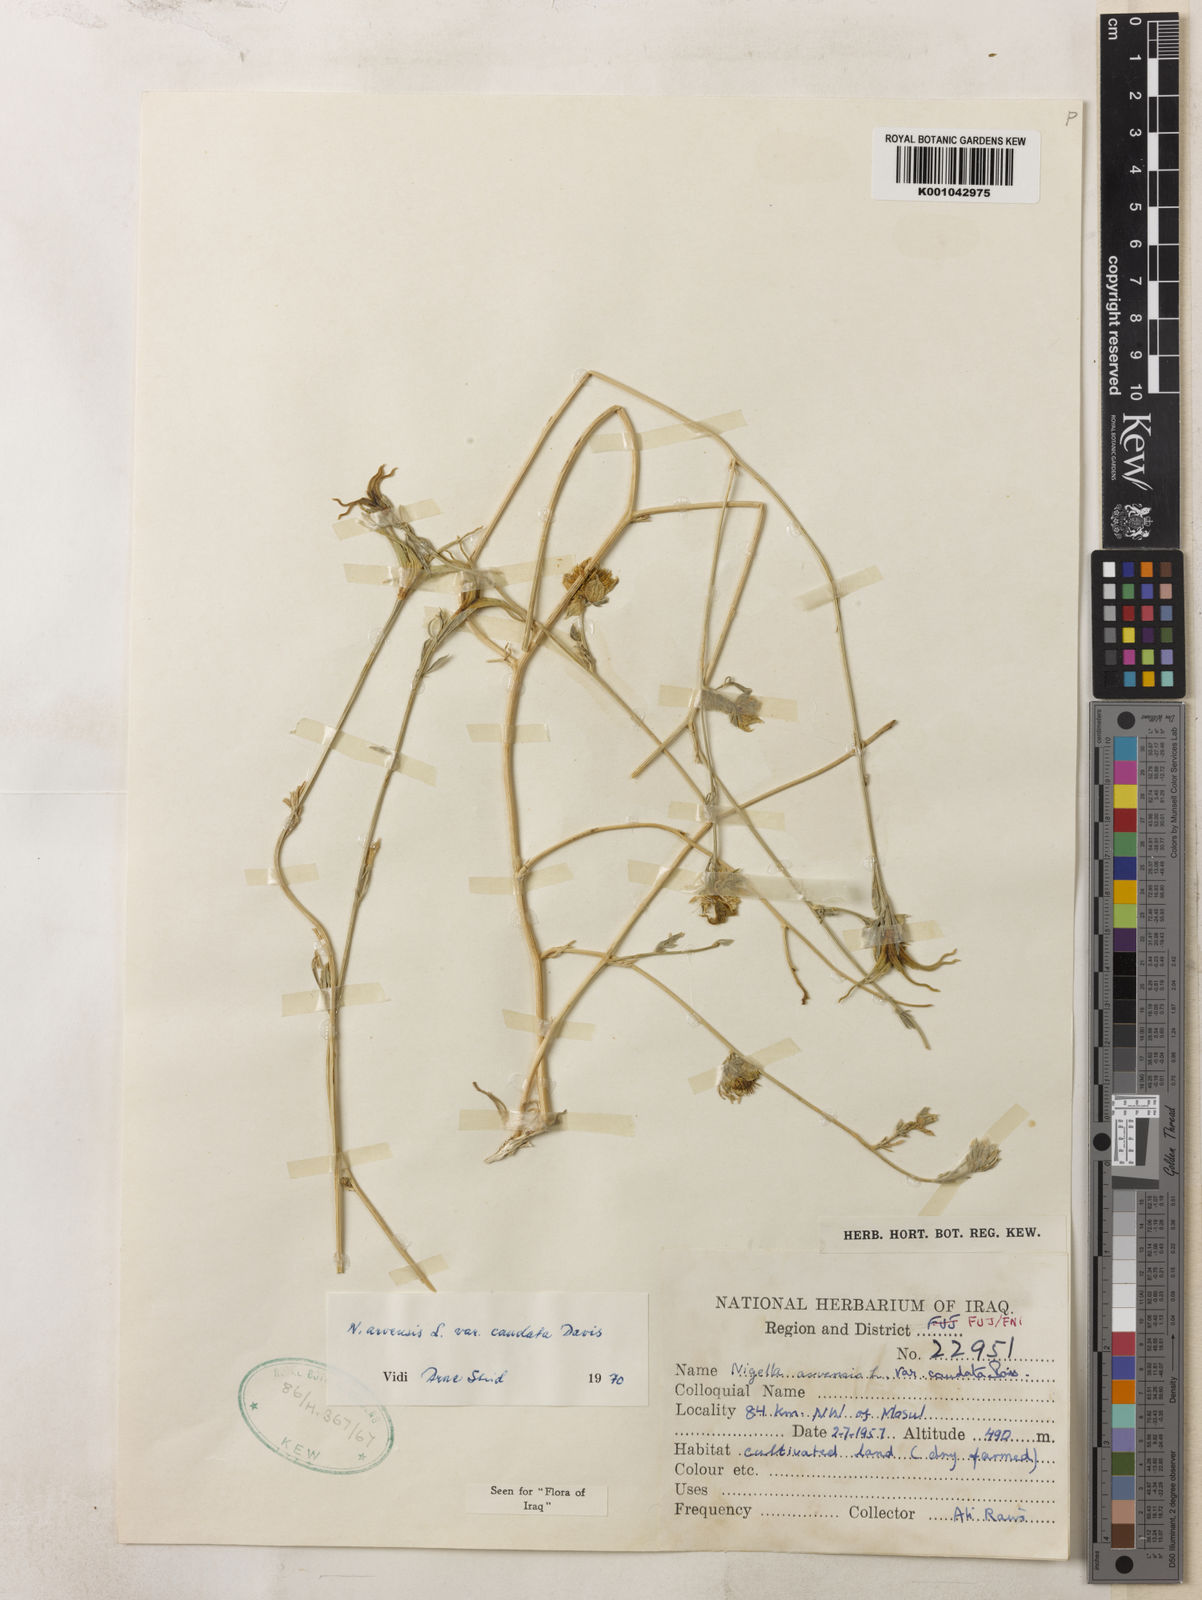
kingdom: Plantae
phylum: Tracheophyta
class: Magnoliopsida
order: Ranunculales
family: Ranunculaceae
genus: Nigella
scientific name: Nigella arvensis
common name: Wild fennel-flower
